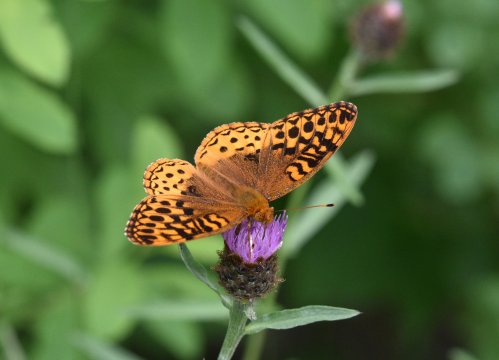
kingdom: Animalia
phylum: Arthropoda
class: Insecta
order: Lepidoptera
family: Nymphalidae
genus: Speyeria
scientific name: Speyeria cybele
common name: Great Spangled Fritillary
